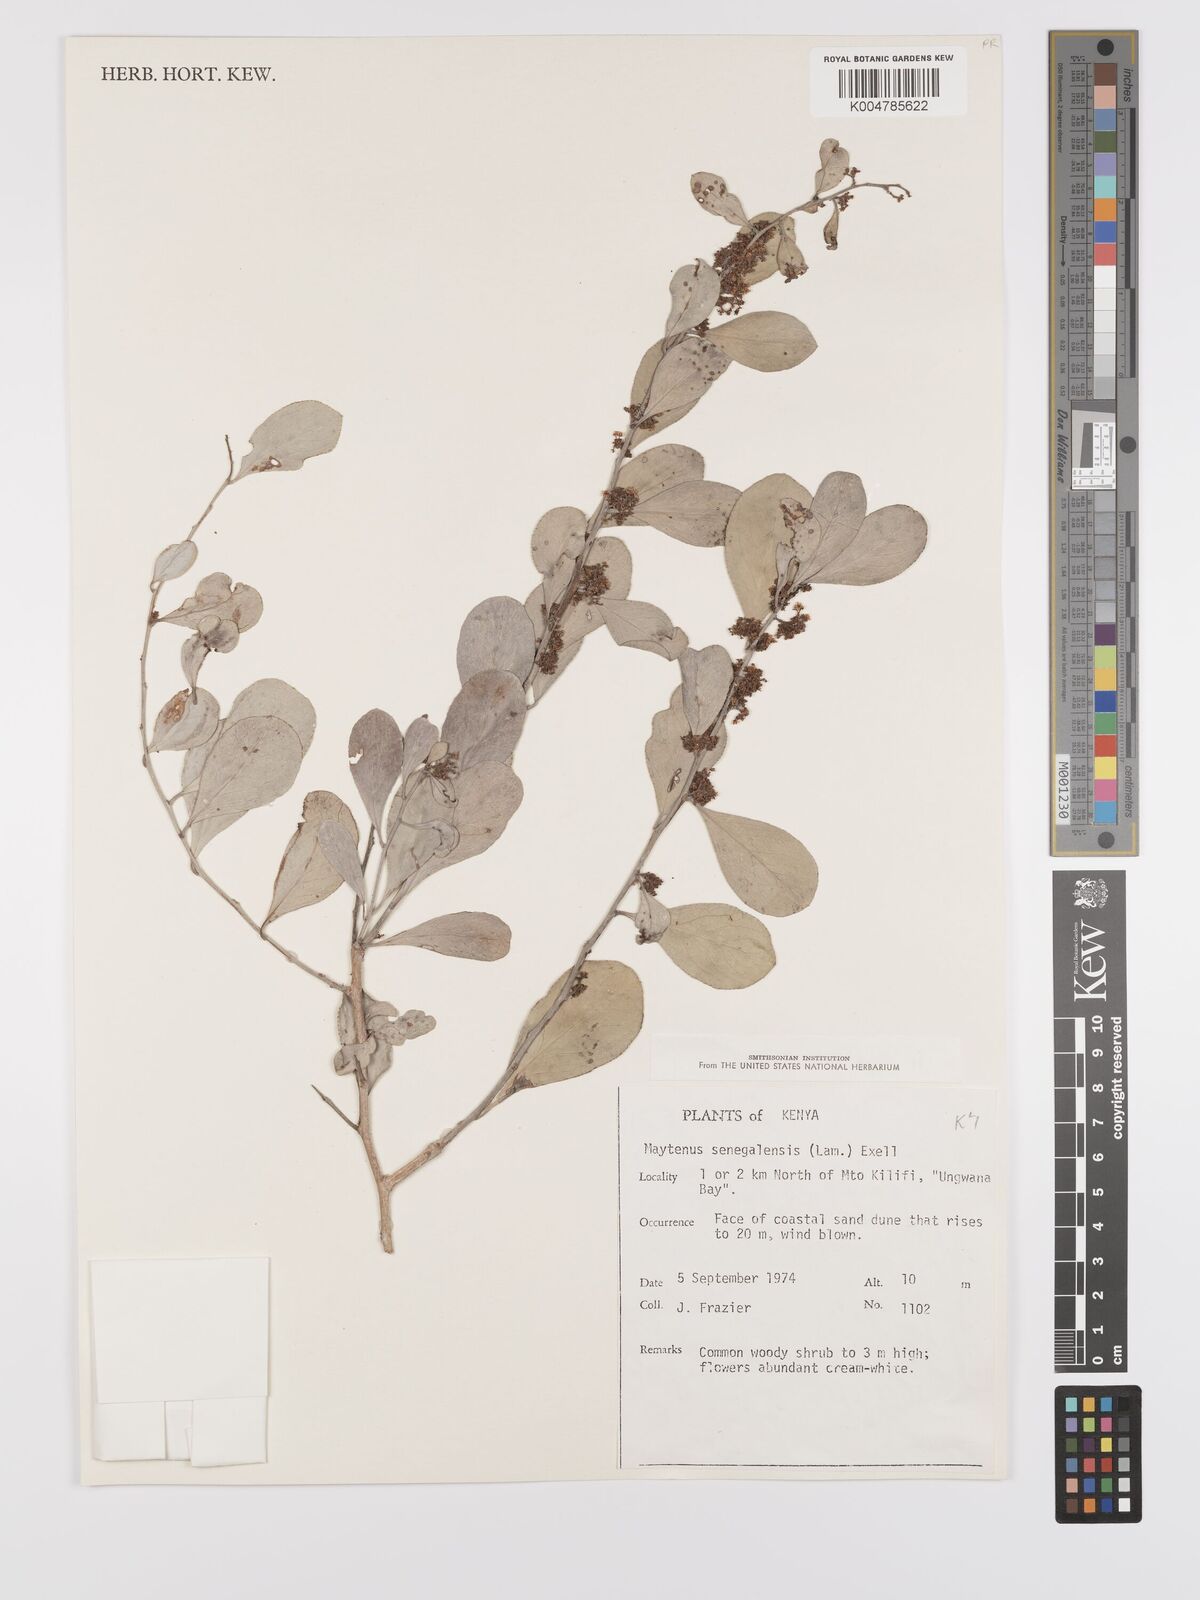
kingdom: Plantae
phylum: Tracheophyta
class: Magnoliopsida
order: Celastrales
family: Celastraceae
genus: Gymnosporia
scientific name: Gymnosporia senegalensis
